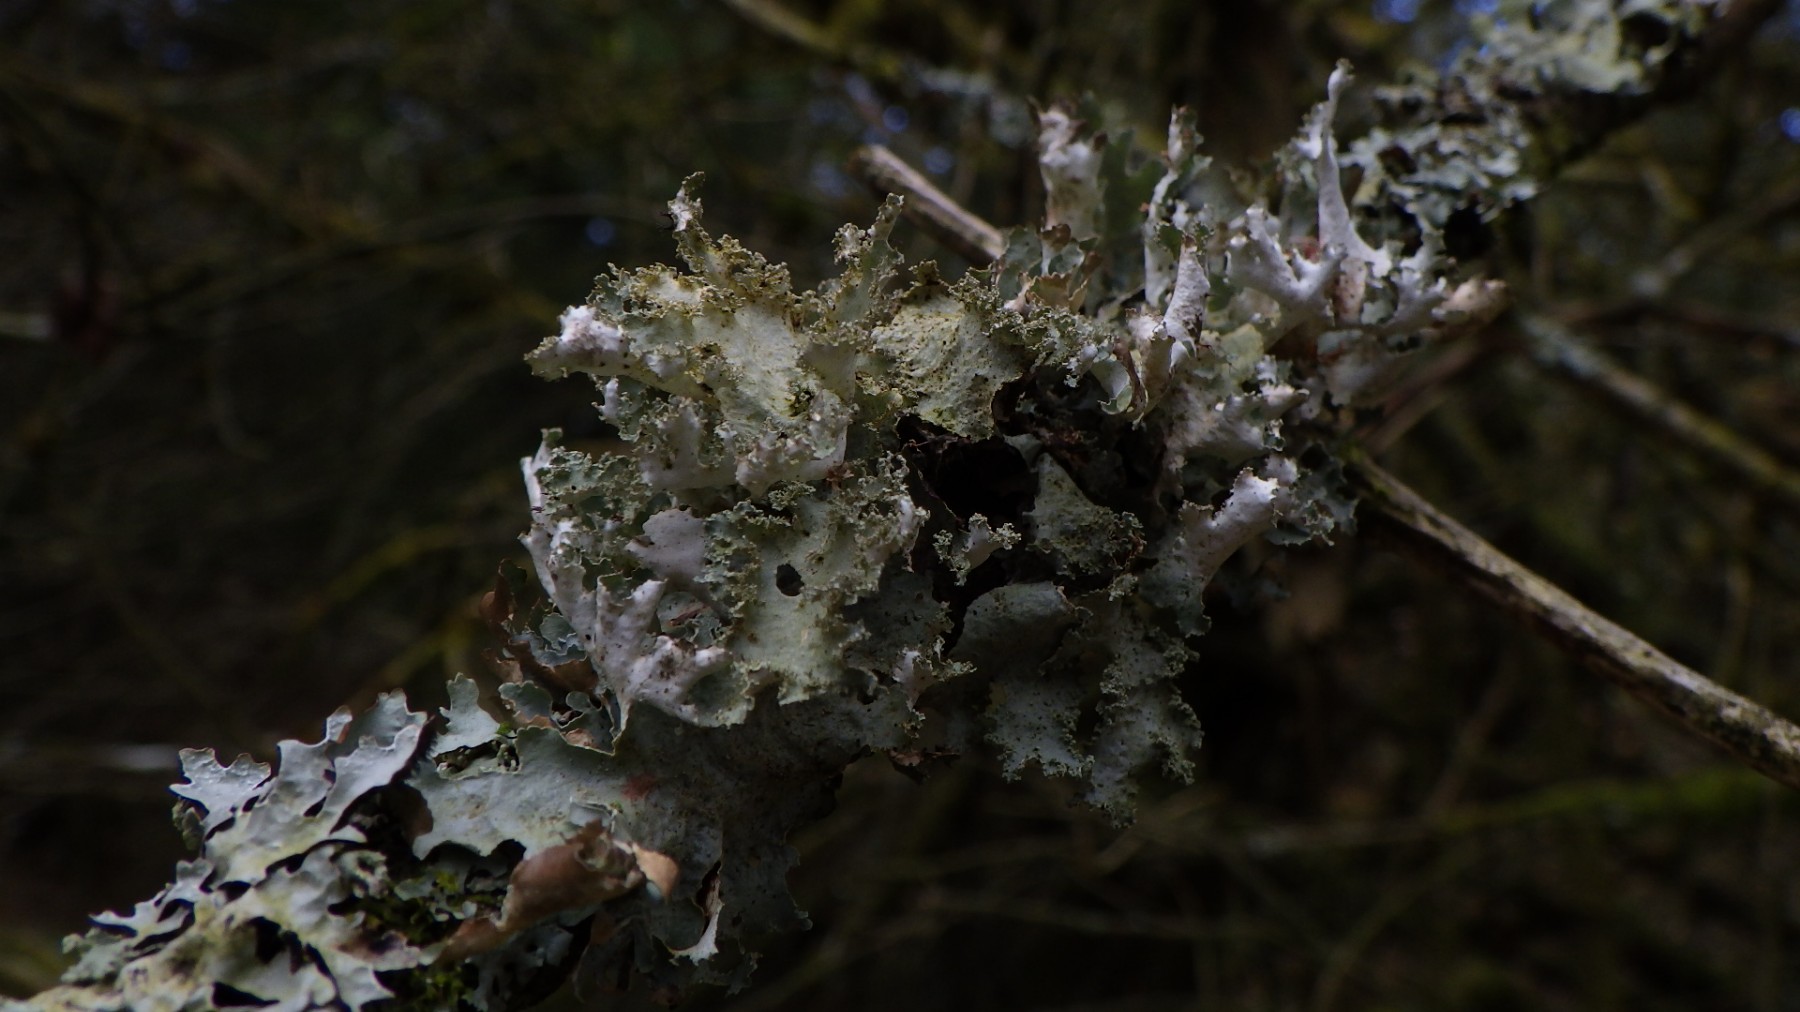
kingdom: Fungi
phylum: Ascomycota
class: Lecanoromycetes
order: Lecanorales
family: Parmeliaceae
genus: Platismatia
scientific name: Platismatia glauca
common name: blågrå papirlav
